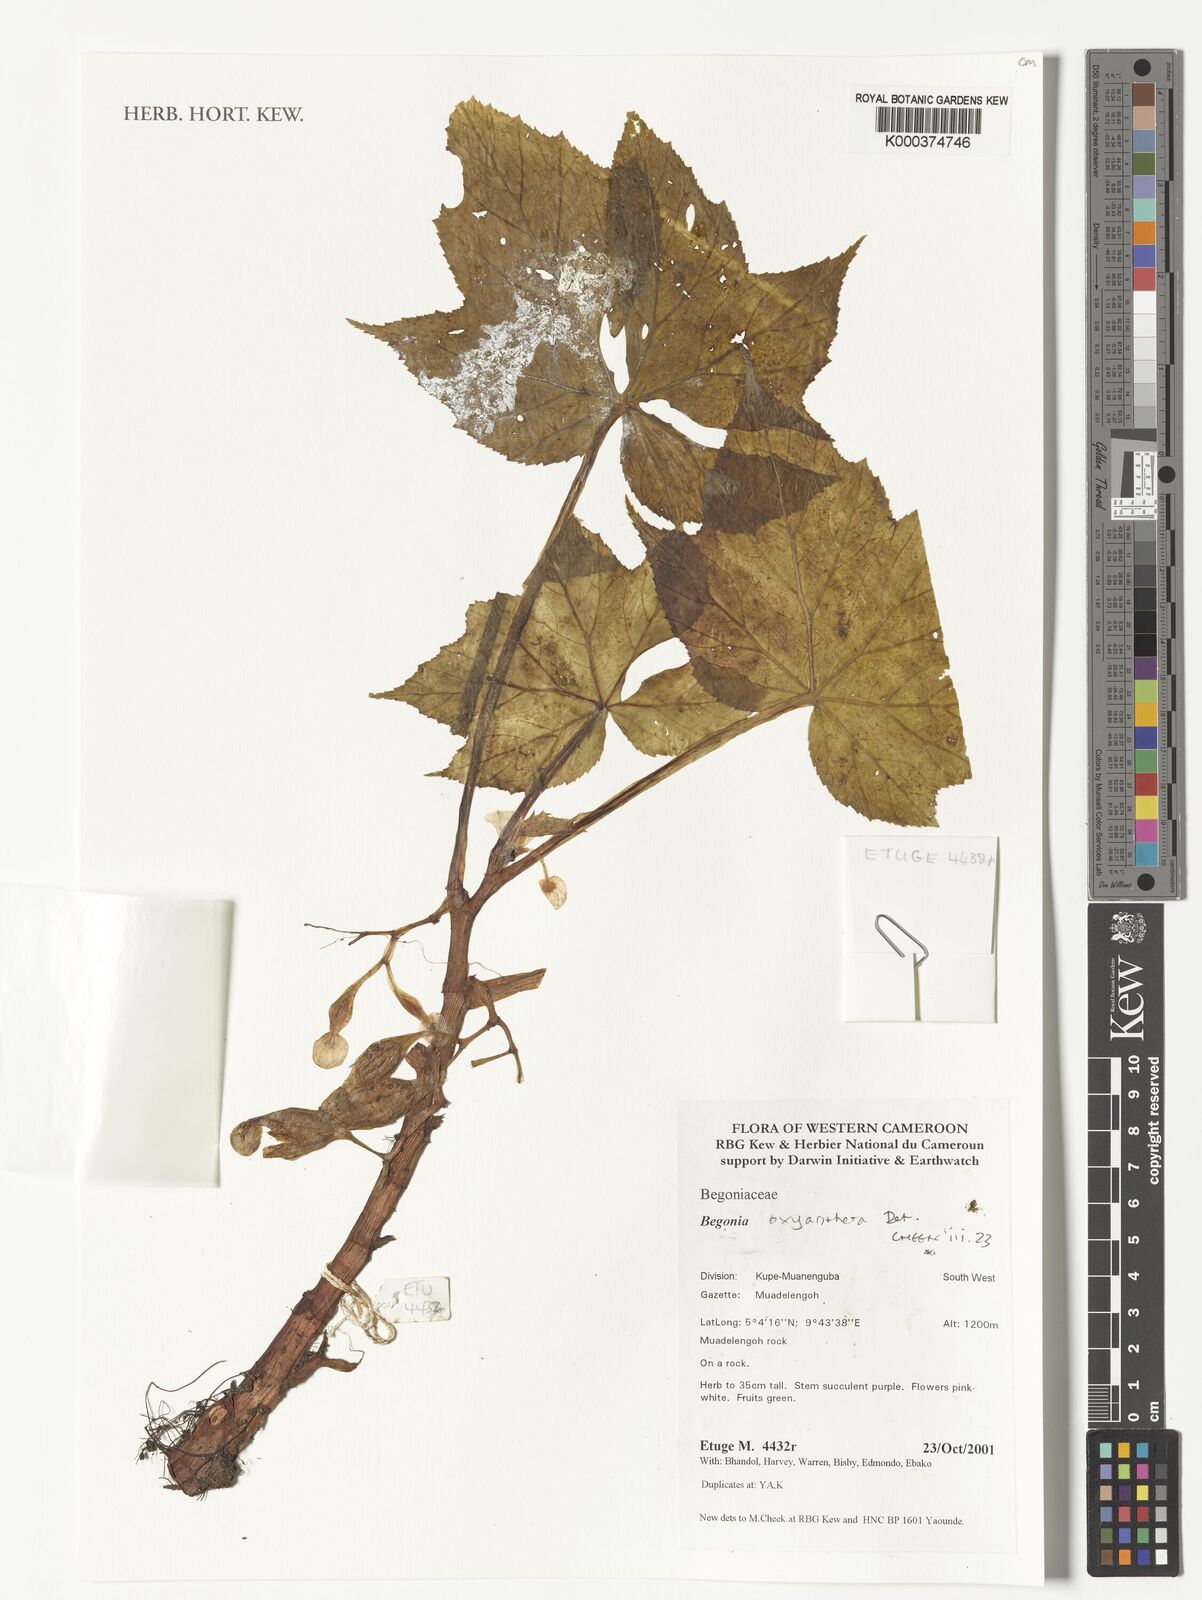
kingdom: Plantae
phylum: Tracheophyta
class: Magnoliopsida
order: Cucurbitales
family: Begoniaceae
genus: Begonia
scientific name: Begonia oxyanthera
